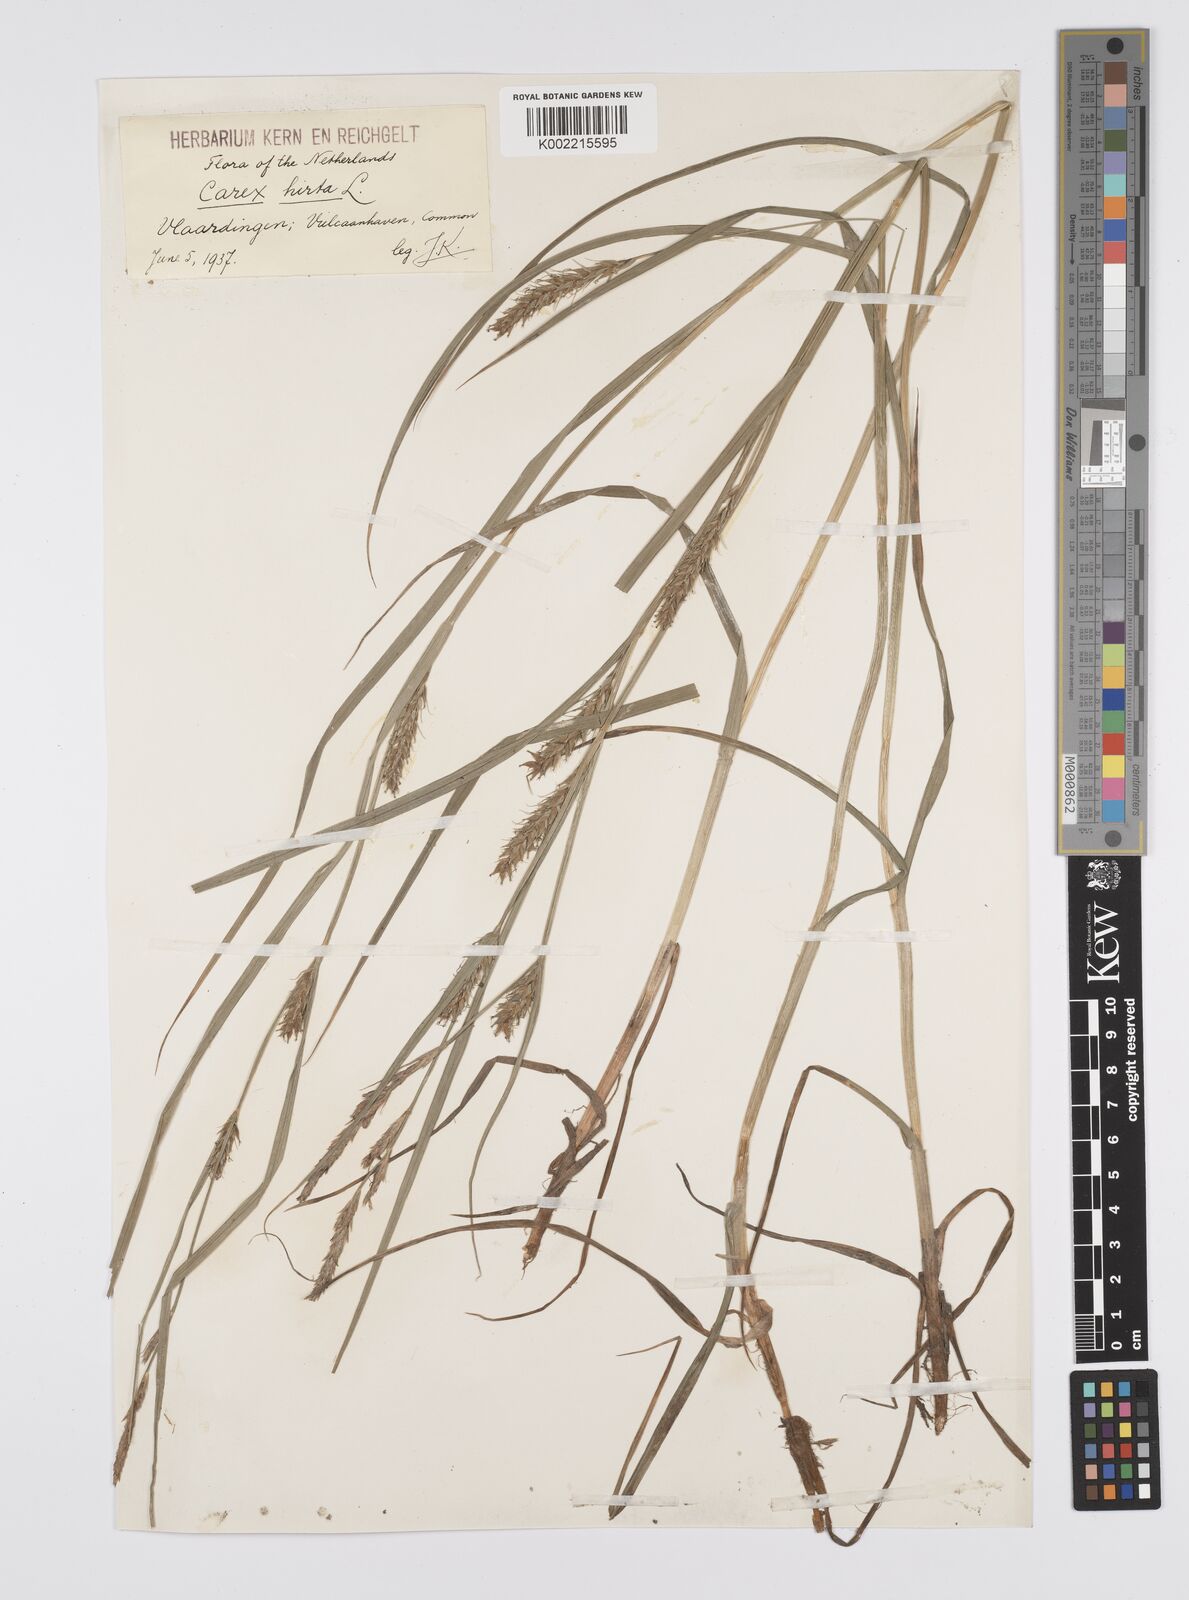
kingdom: Plantae
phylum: Tracheophyta
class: Liliopsida
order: Poales
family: Cyperaceae
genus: Carex
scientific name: Carex hirta
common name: Hairy sedge
